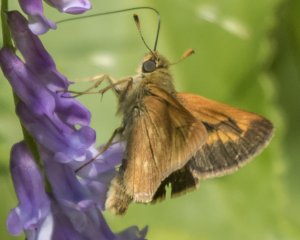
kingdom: Animalia
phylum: Arthropoda
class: Insecta
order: Lepidoptera
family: Hesperiidae
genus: Polites
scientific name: Polites
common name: Long Dash Skipper
